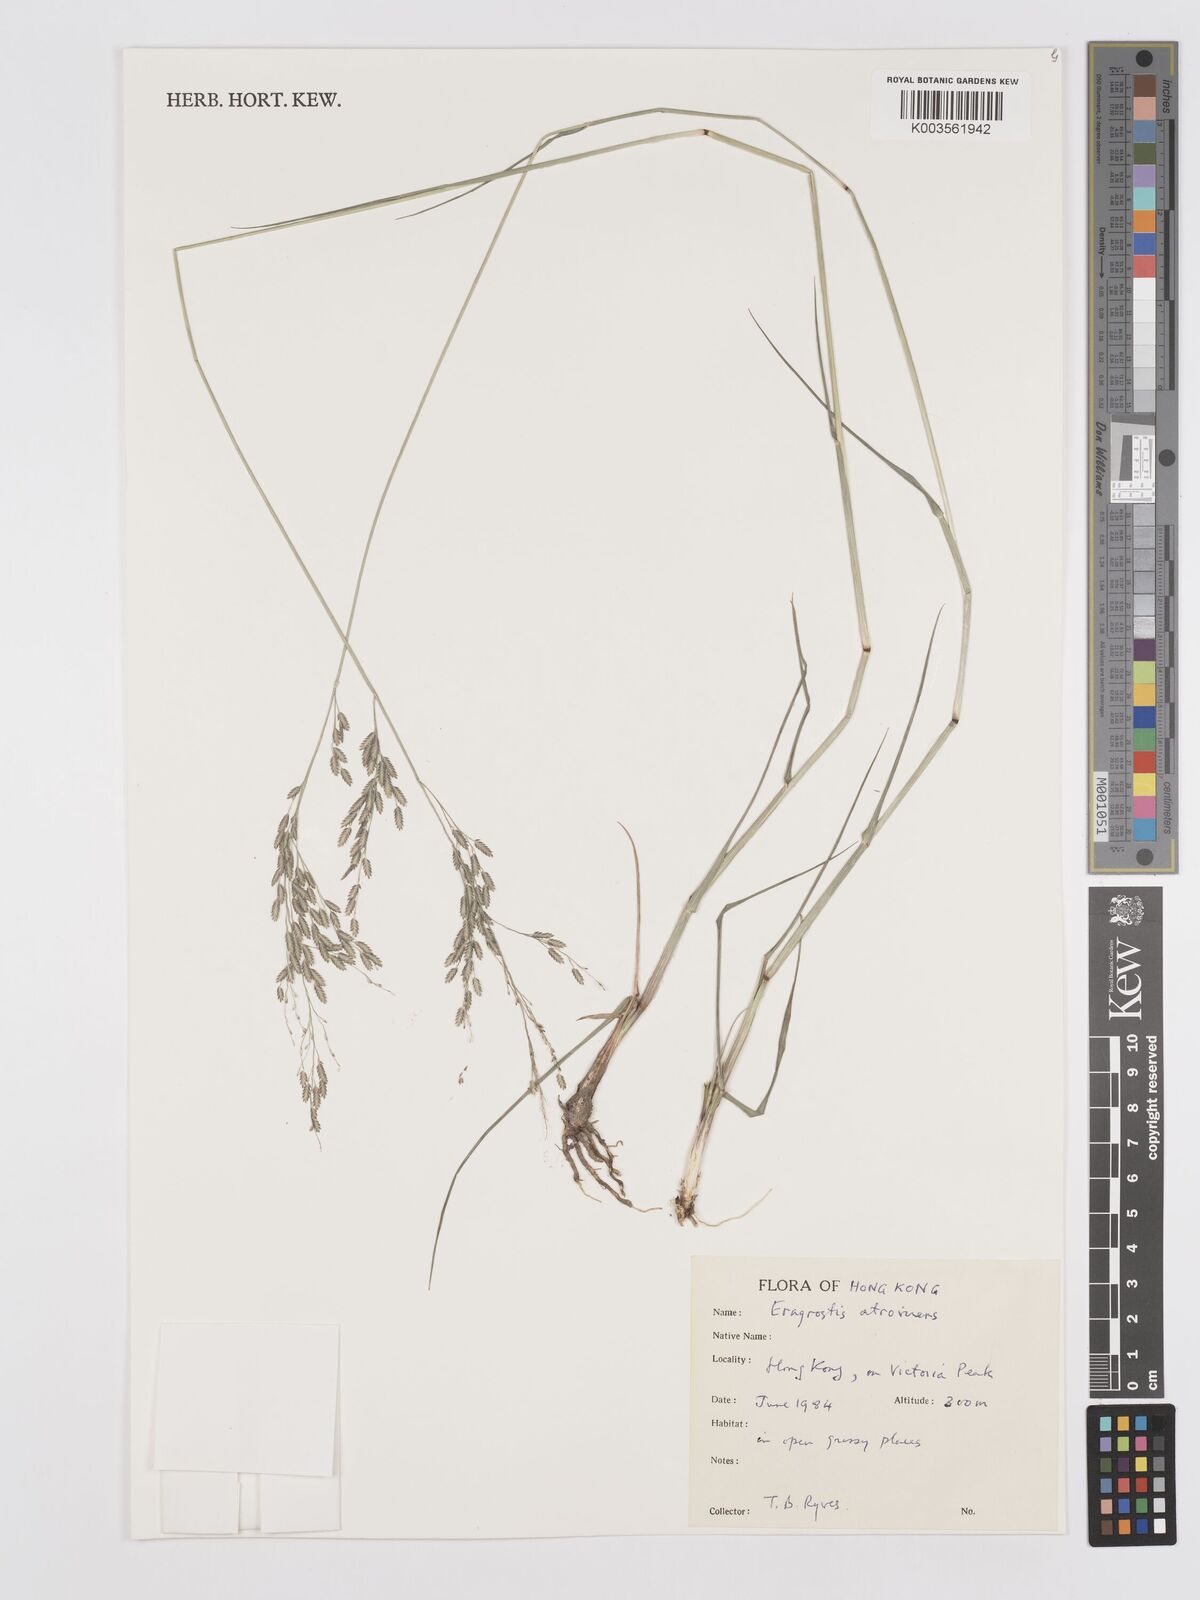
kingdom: Plantae
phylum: Tracheophyta
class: Liliopsida
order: Poales
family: Poaceae
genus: Eragrostis
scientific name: Eragrostis atrovirens
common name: Thalia lovegrass
